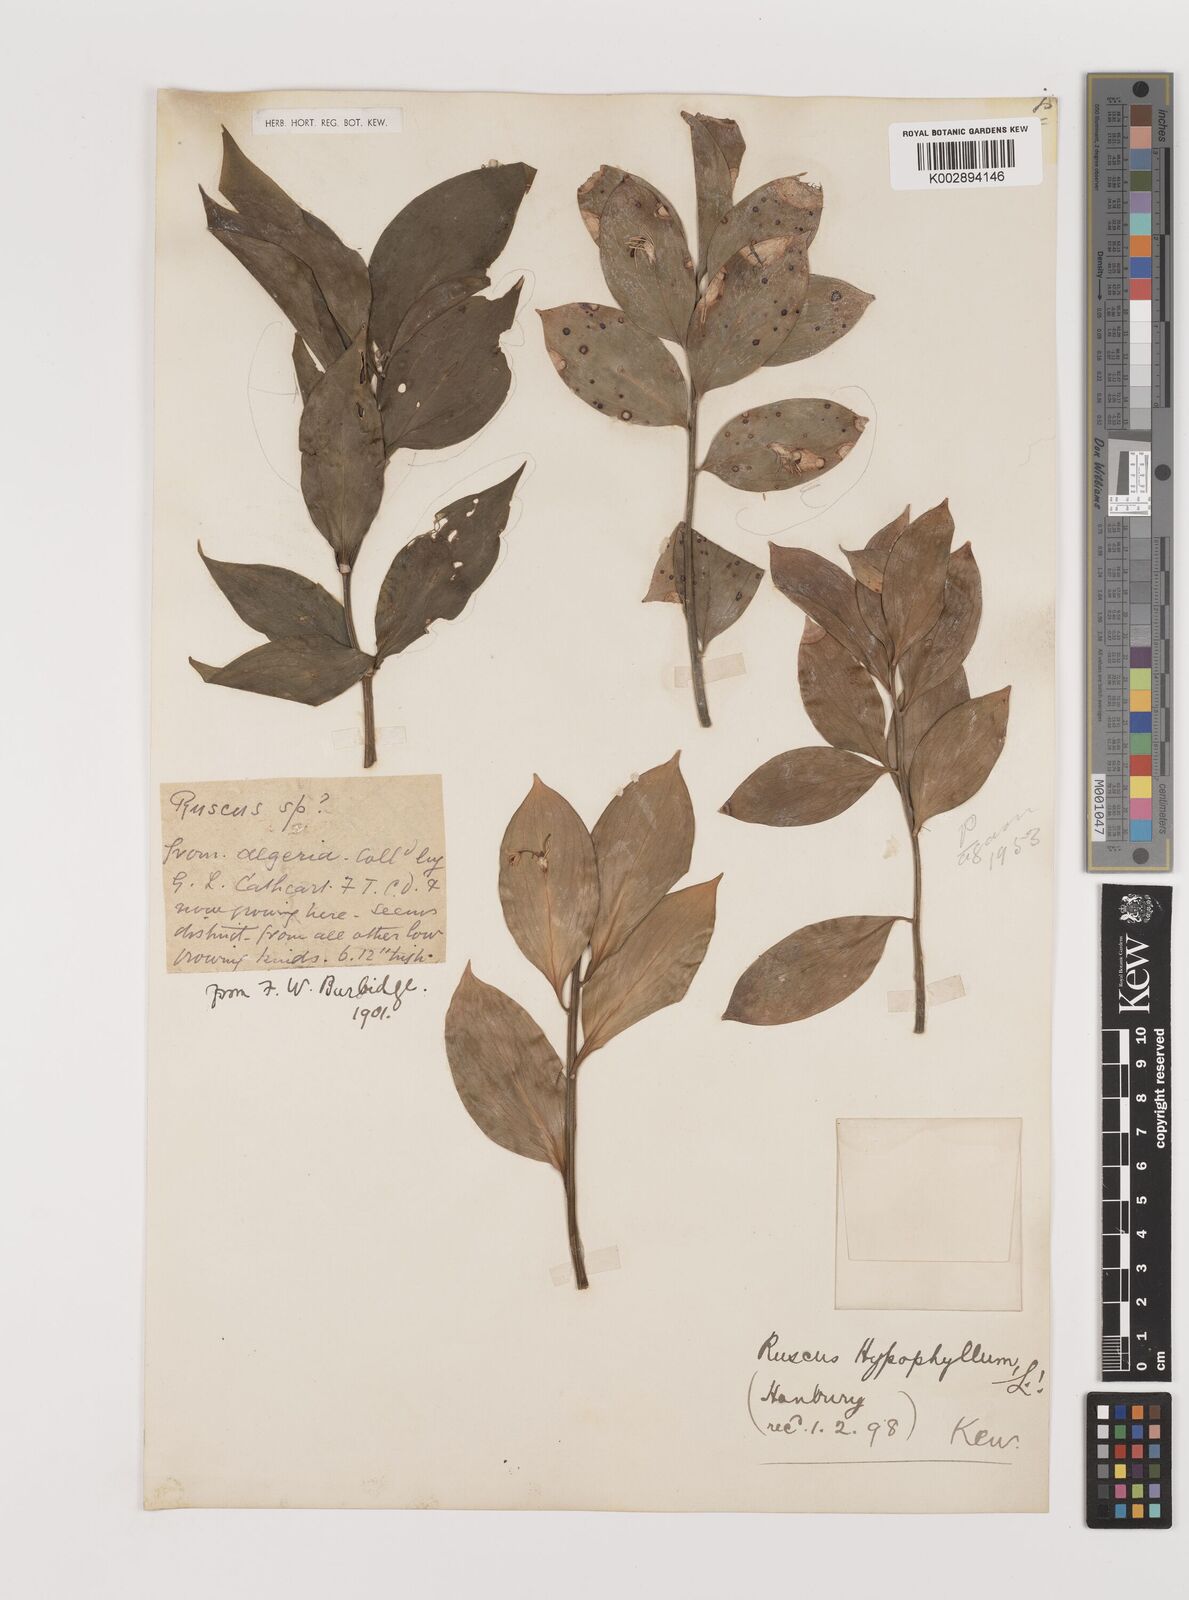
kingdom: Plantae
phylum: Tracheophyta
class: Liliopsida
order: Asparagales
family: Asparagaceae
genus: Ruscus
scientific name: Ruscus hypophyllum
